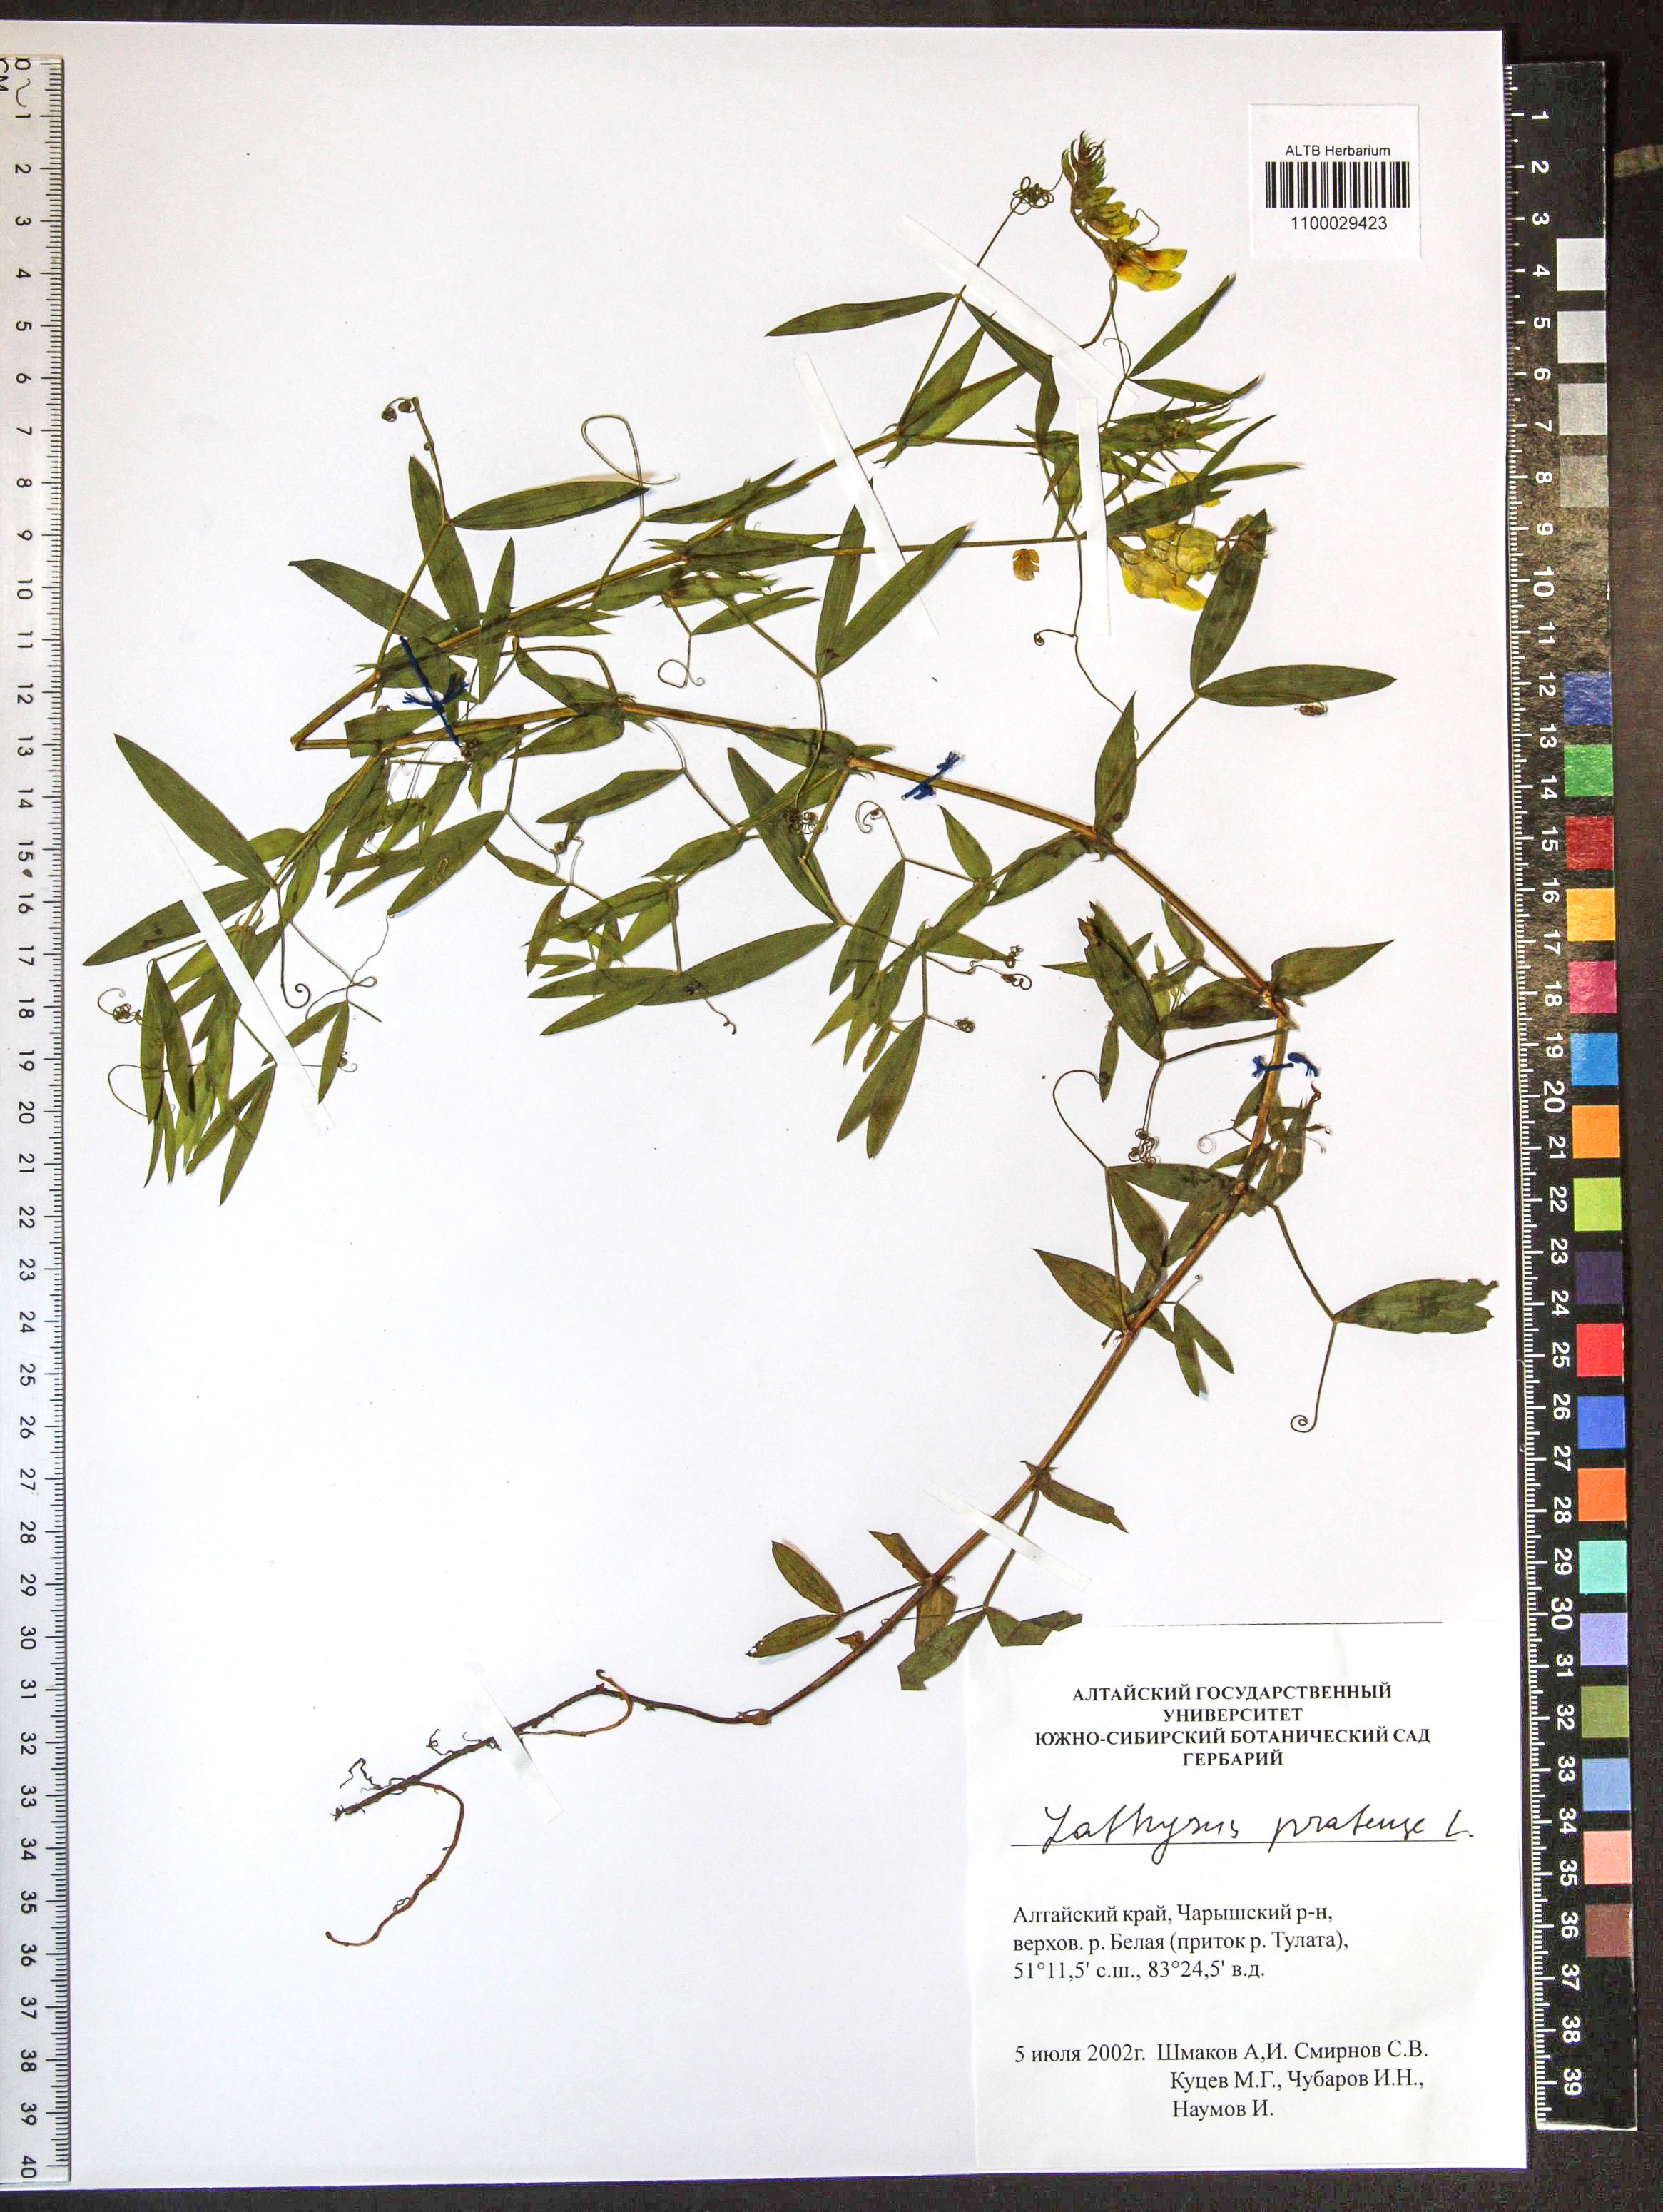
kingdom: Plantae
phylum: Tracheophyta
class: Magnoliopsida
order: Fabales
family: Fabaceae
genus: Lathyrus
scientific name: Lathyrus pratensis
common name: Meadow vetchling
